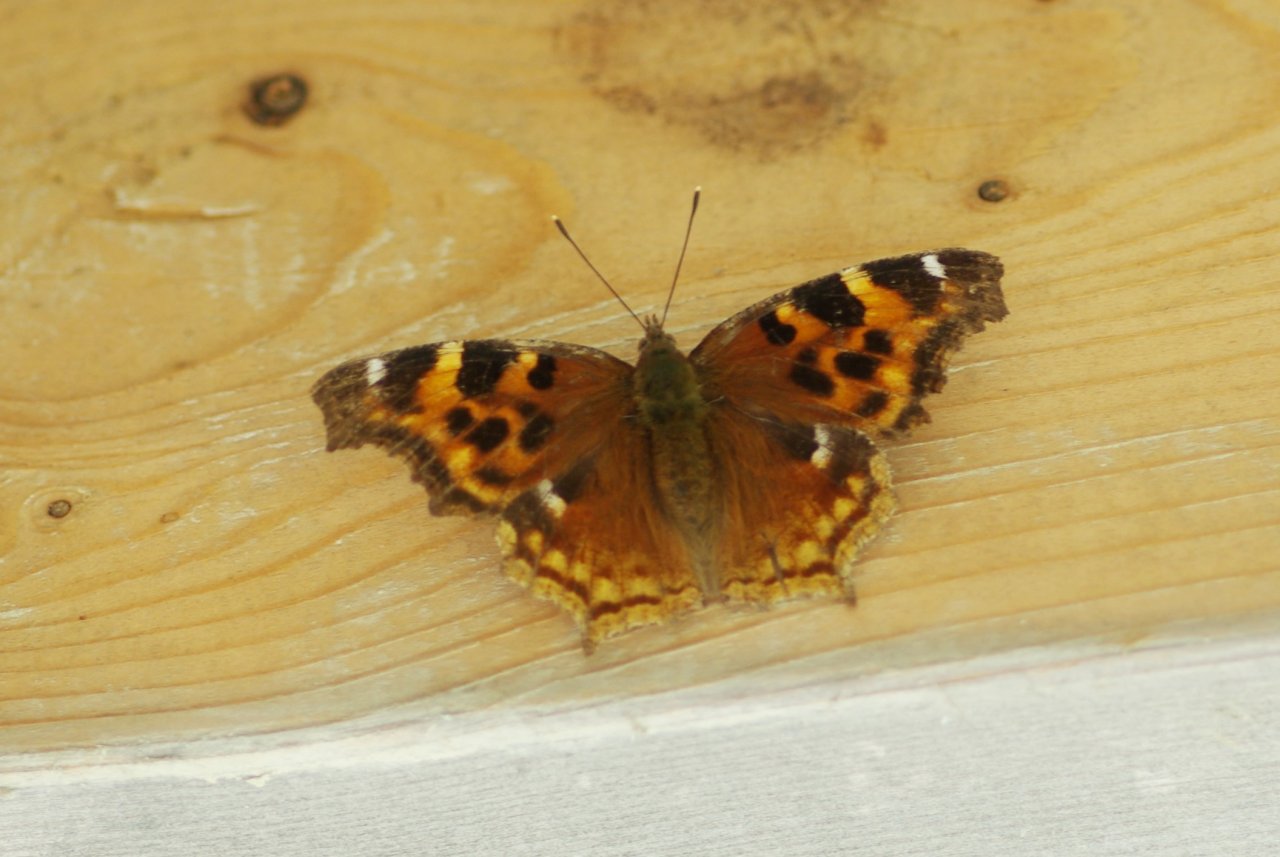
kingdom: Animalia
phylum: Arthropoda
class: Insecta
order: Lepidoptera
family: Nymphalidae
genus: Polygonia
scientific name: Polygonia vaualbum
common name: Compton Tortoiseshell
